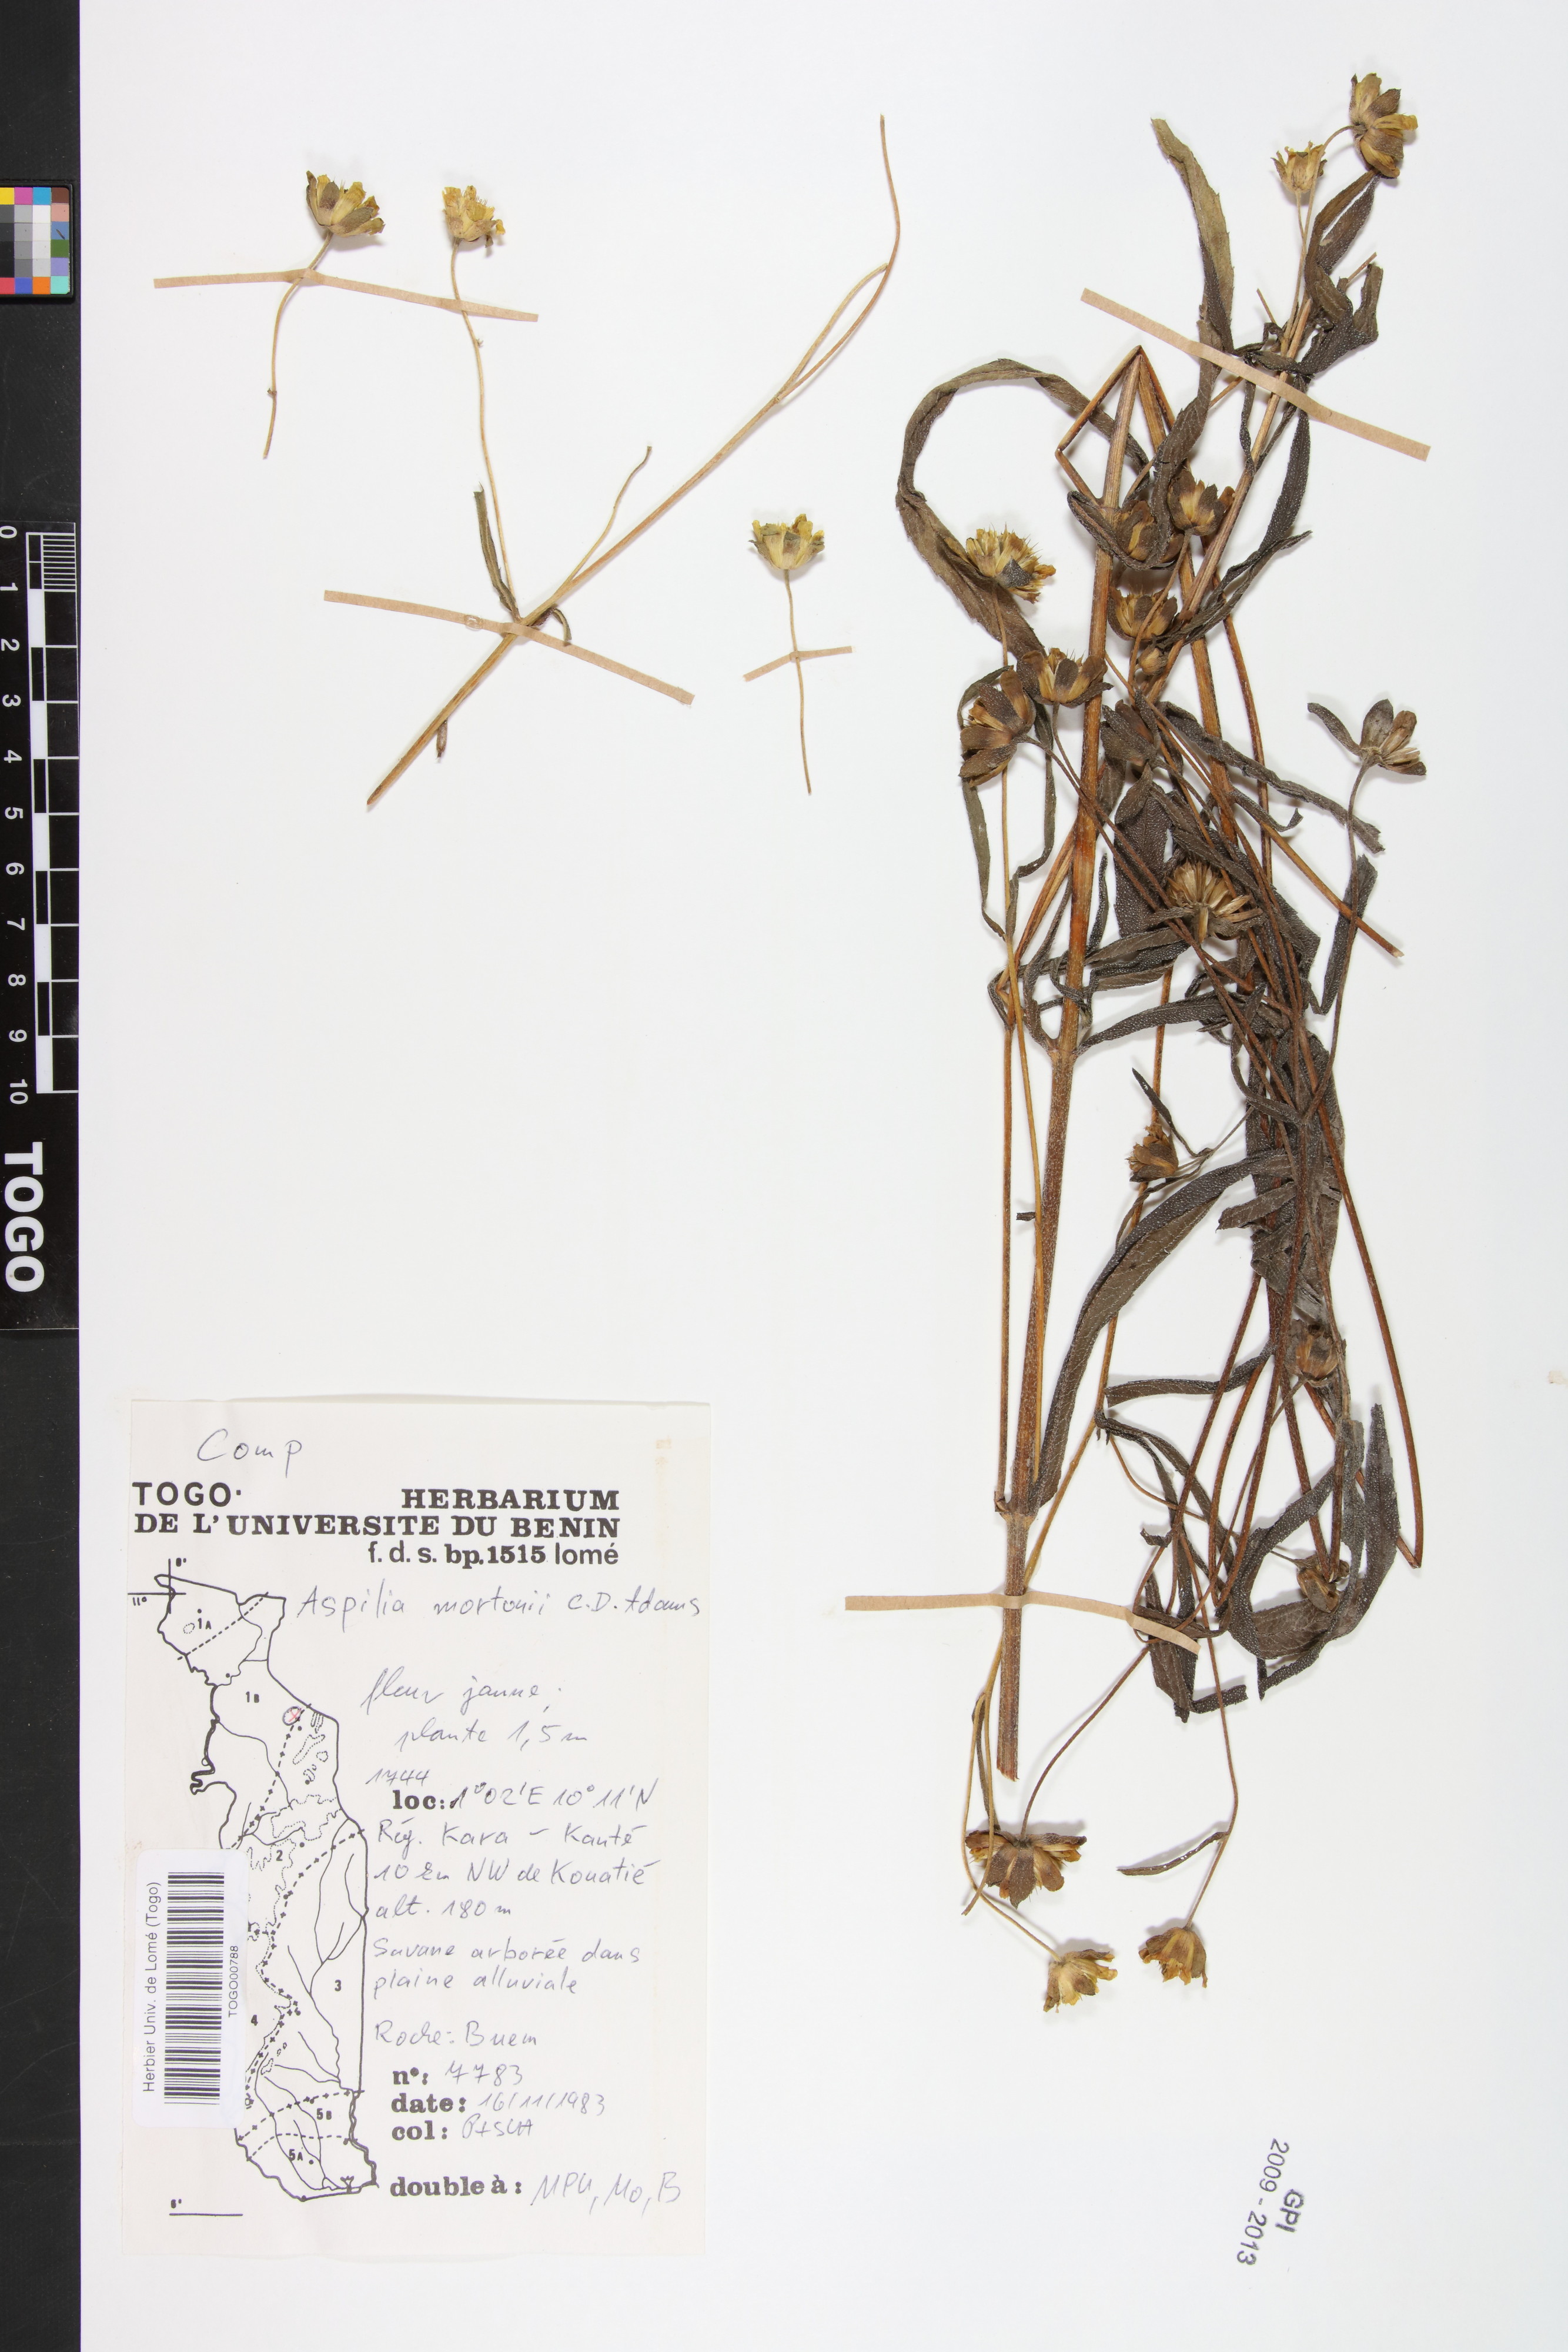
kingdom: Plantae
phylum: Tracheophyta
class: Magnoliopsida
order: Asterales
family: Asteraceae
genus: Aspilia
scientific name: Aspilia angustifolia
